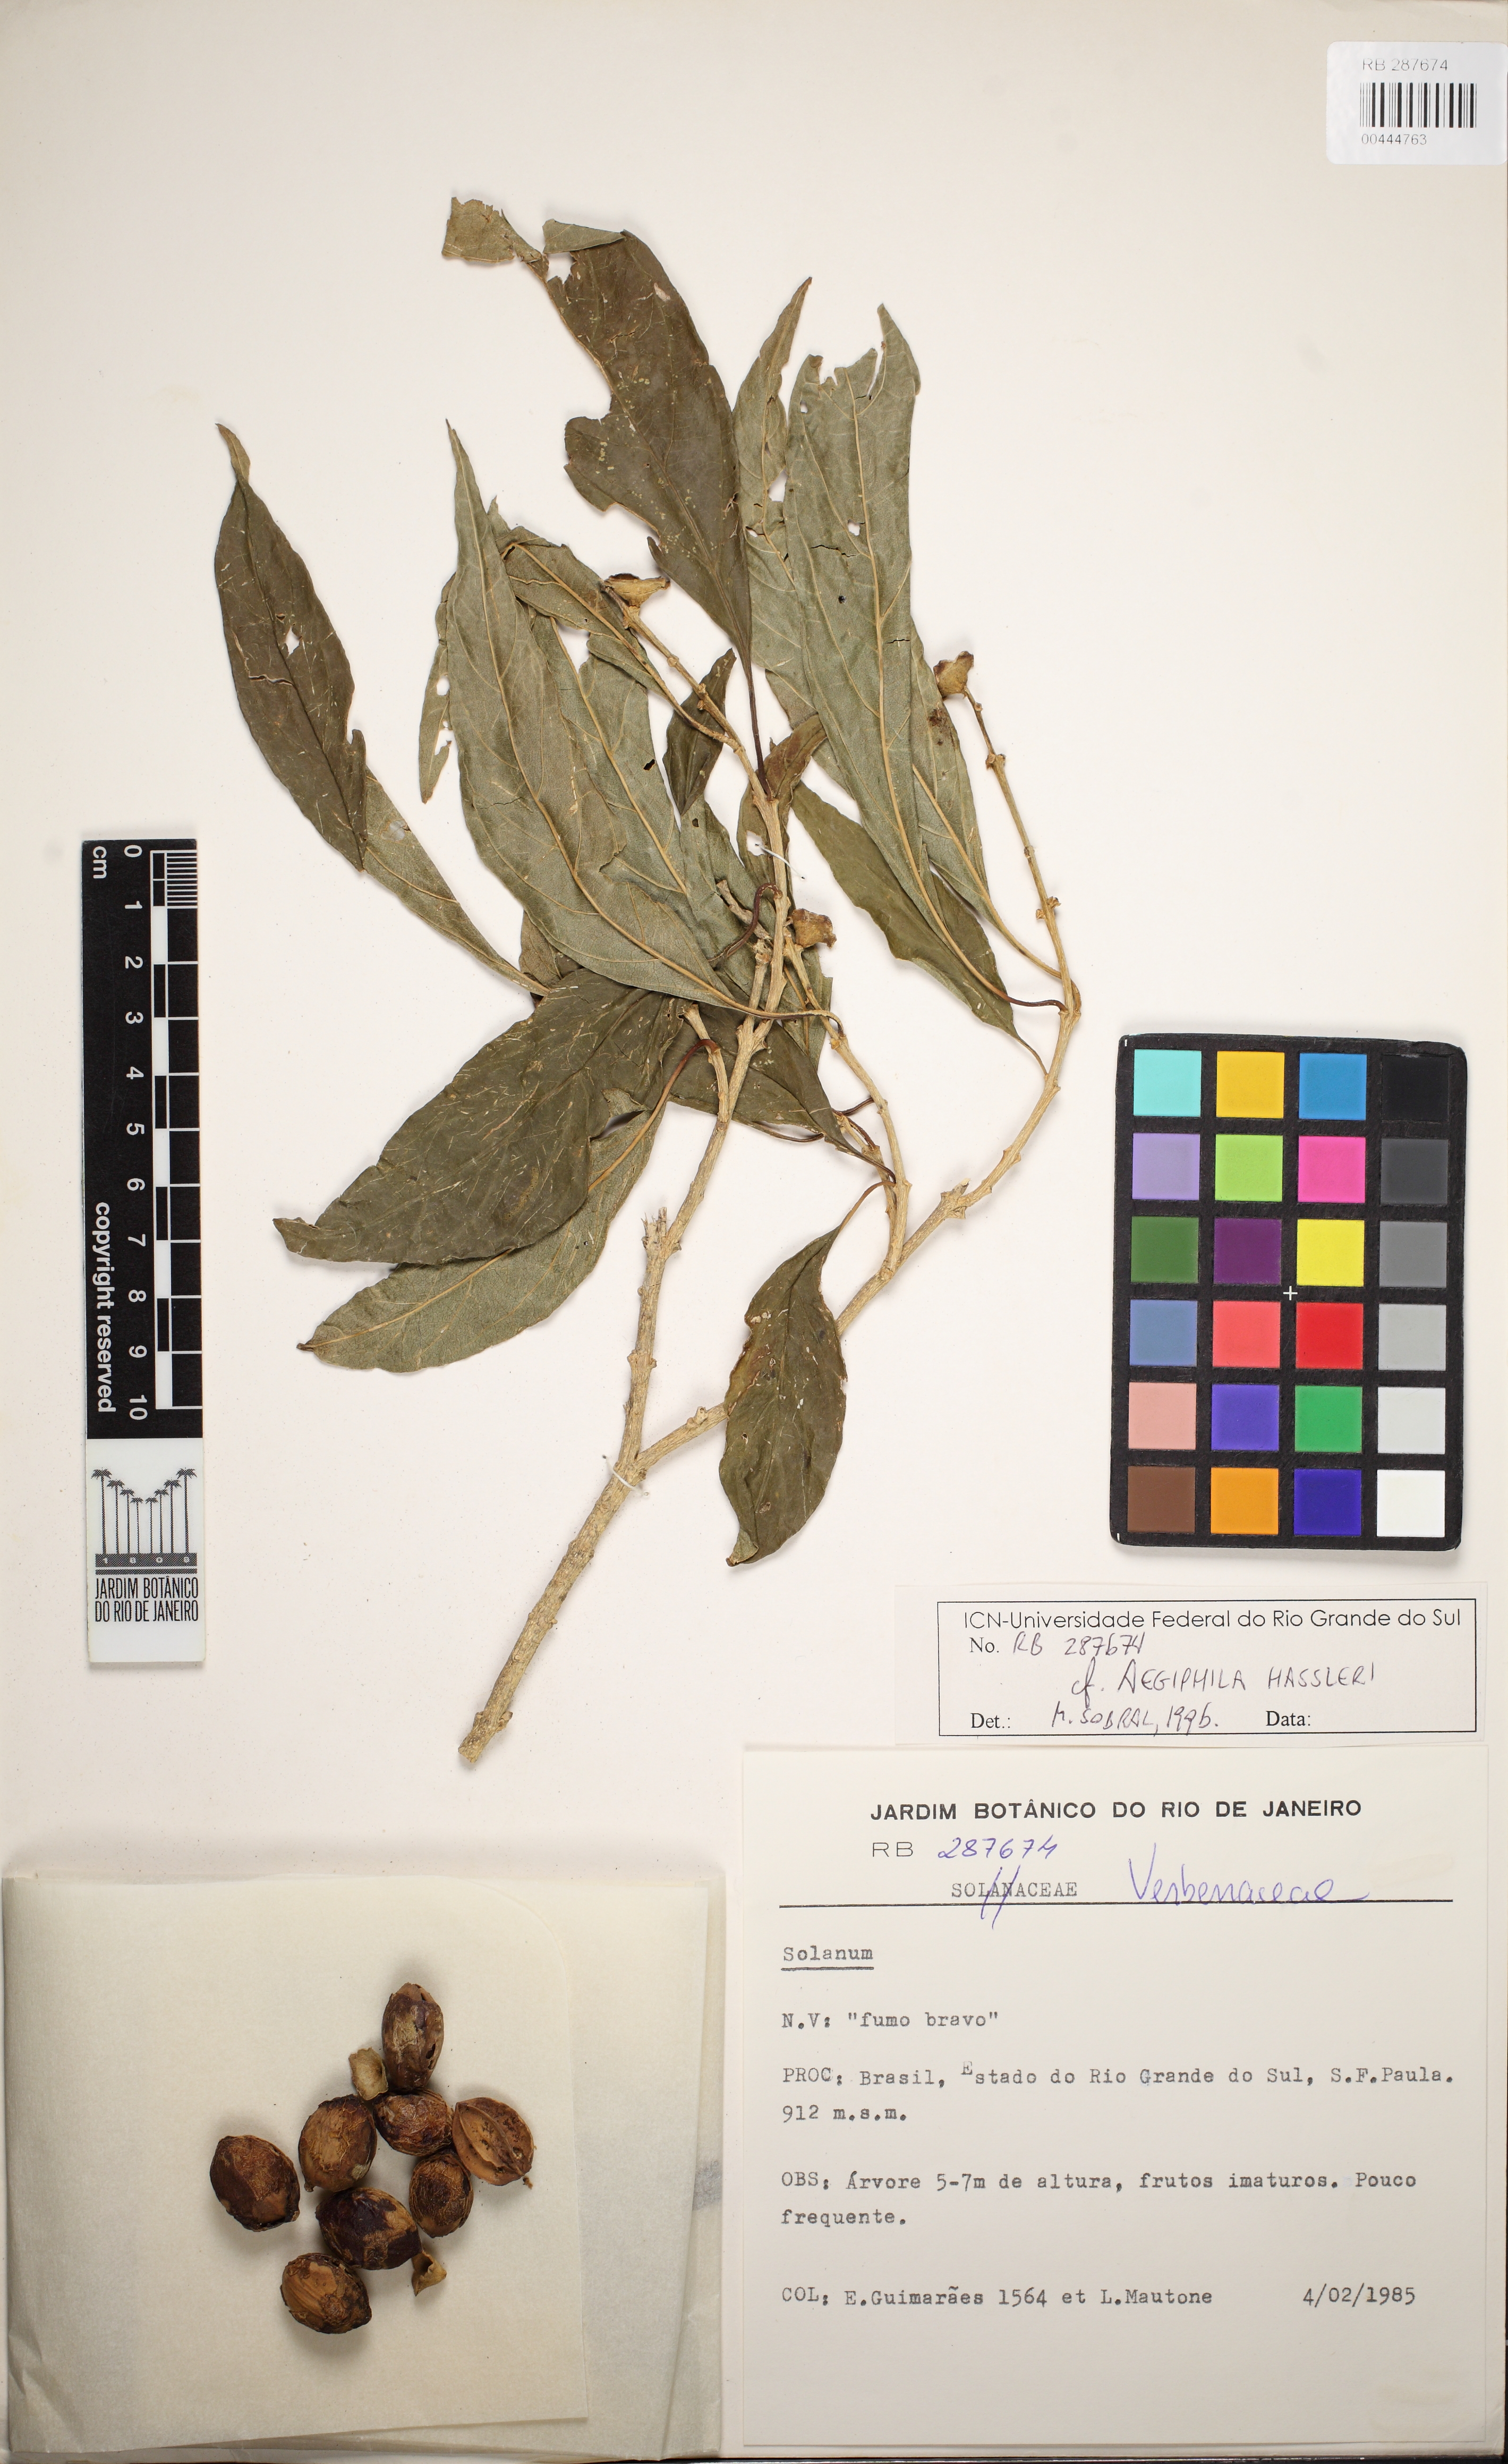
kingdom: Plantae
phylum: Tracheophyta
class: Magnoliopsida
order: Lamiales
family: Lamiaceae
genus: Aegiphila
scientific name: Aegiphila brachiata
